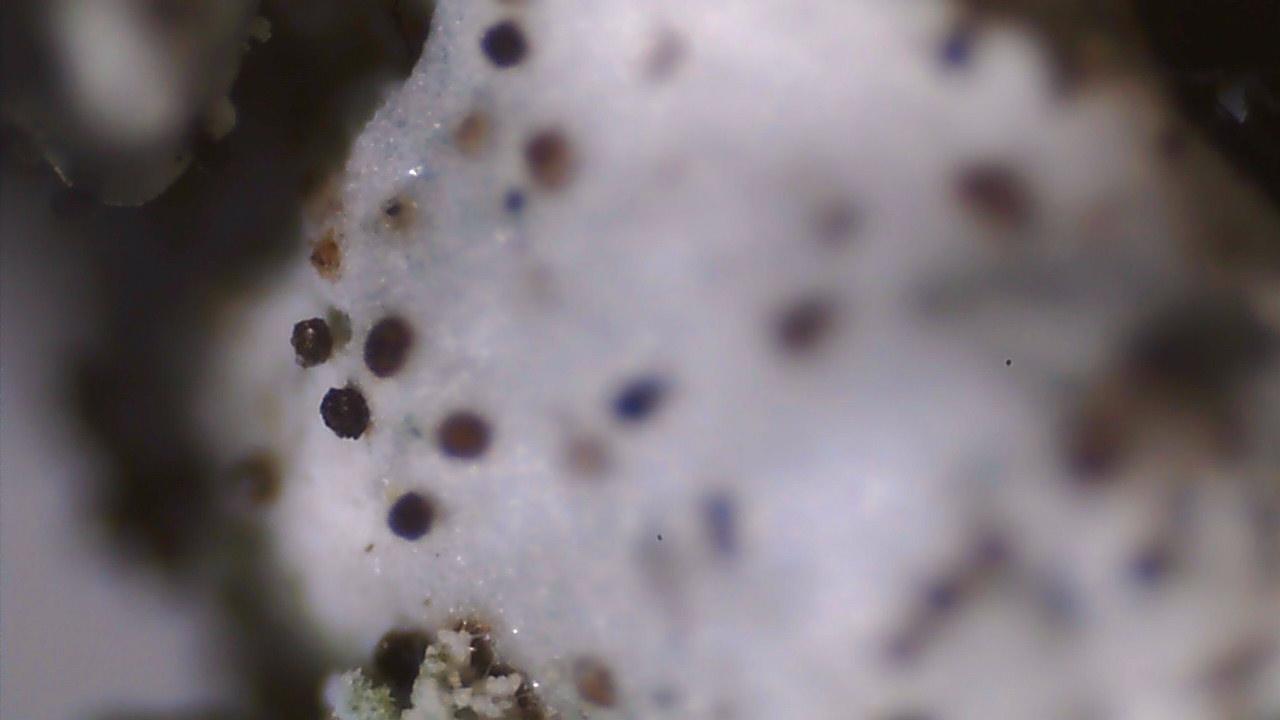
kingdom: Fungi
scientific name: Fungi
